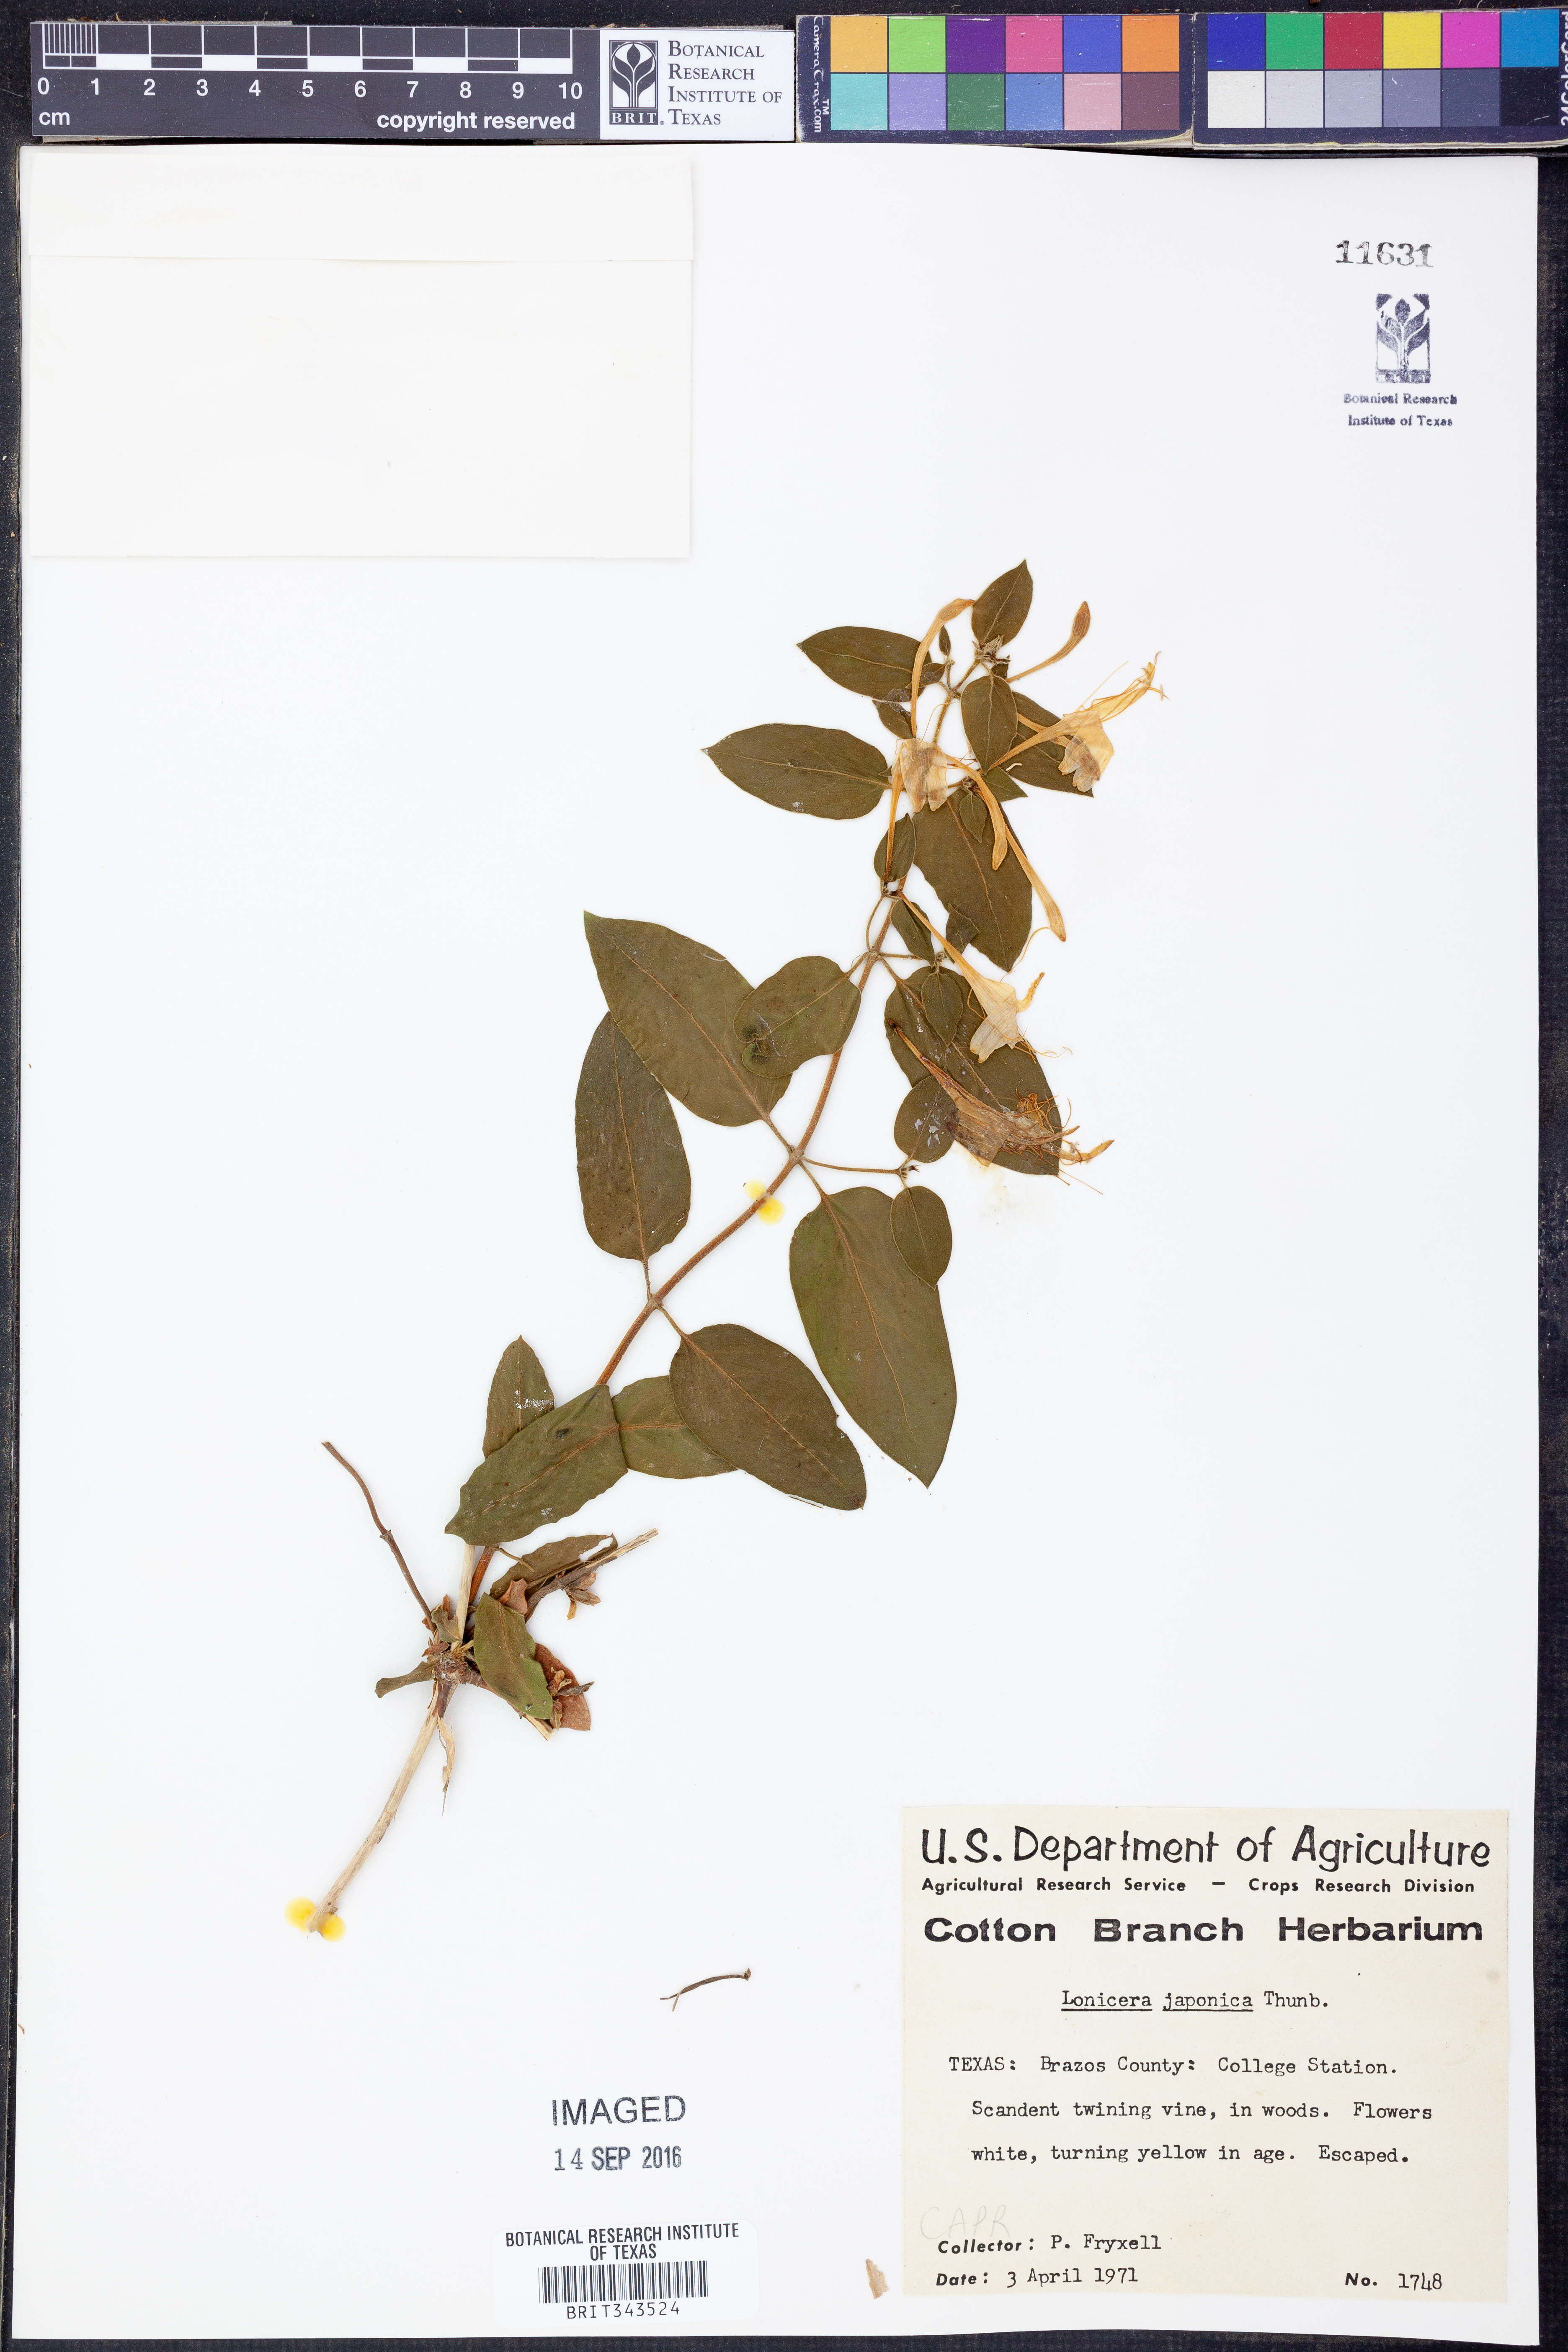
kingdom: Plantae
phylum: Tracheophyta
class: Magnoliopsida
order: Dipsacales
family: Caprifoliaceae
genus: Lonicera
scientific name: Lonicera japonica
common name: Japanese honeysuckle
